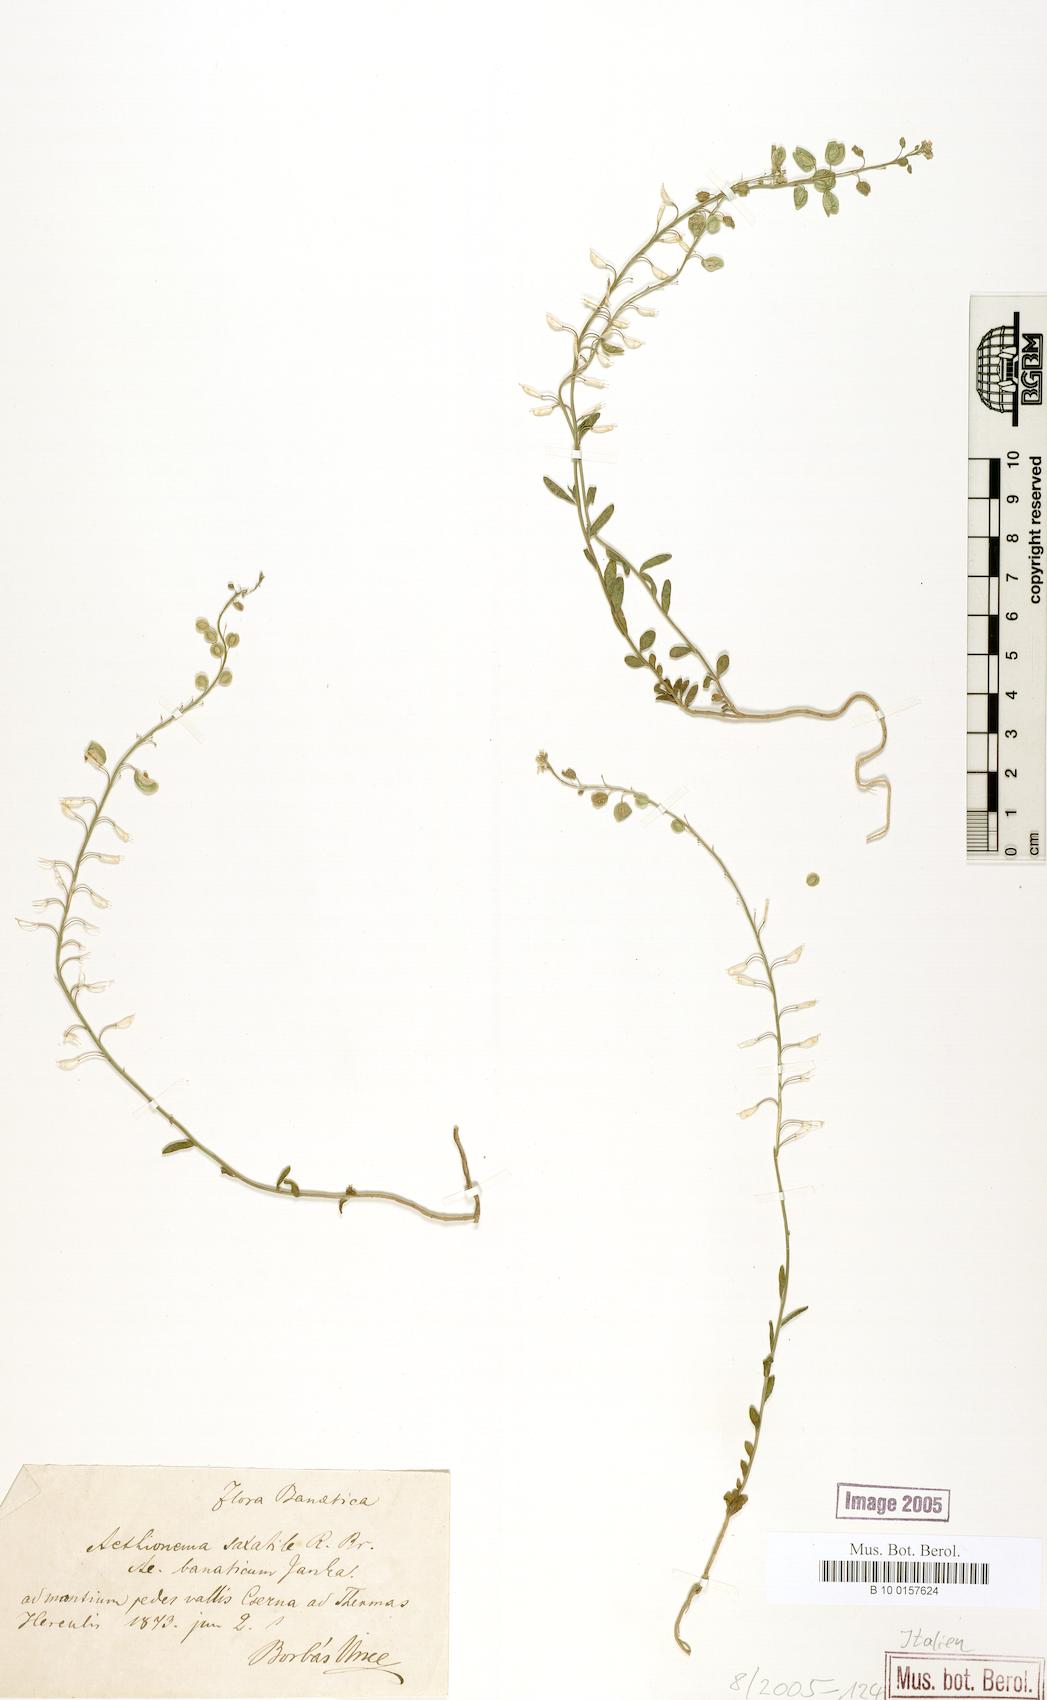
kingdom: Plantae
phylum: Tracheophyta
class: Magnoliopsida
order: Brassicales
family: Brassicaceae
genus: Aethionema
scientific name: Aethionema saxatile
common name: Burnt candytuft
